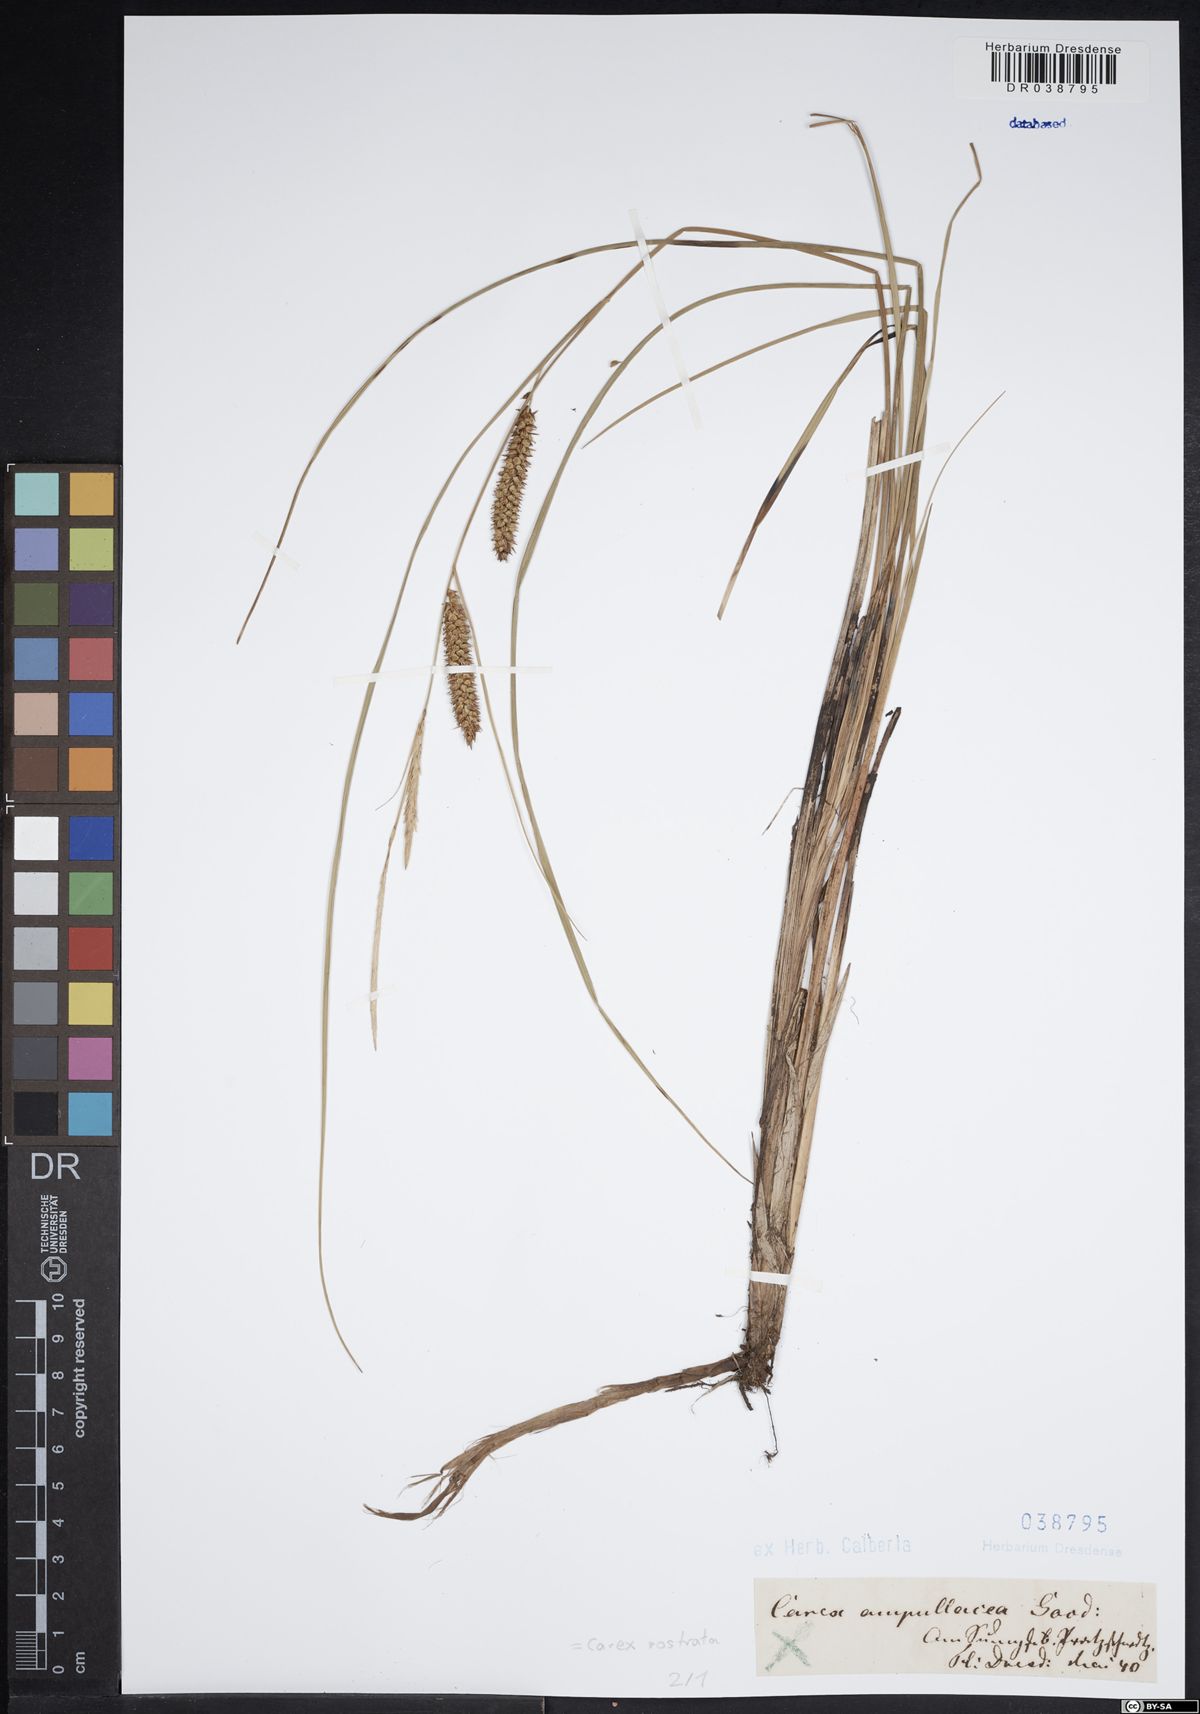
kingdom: Plantae
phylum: Tracheophyta
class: Liliopsida
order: Poales
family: Cyperaceae
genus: Carex
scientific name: Carex rostrata
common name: Bottle sedge
